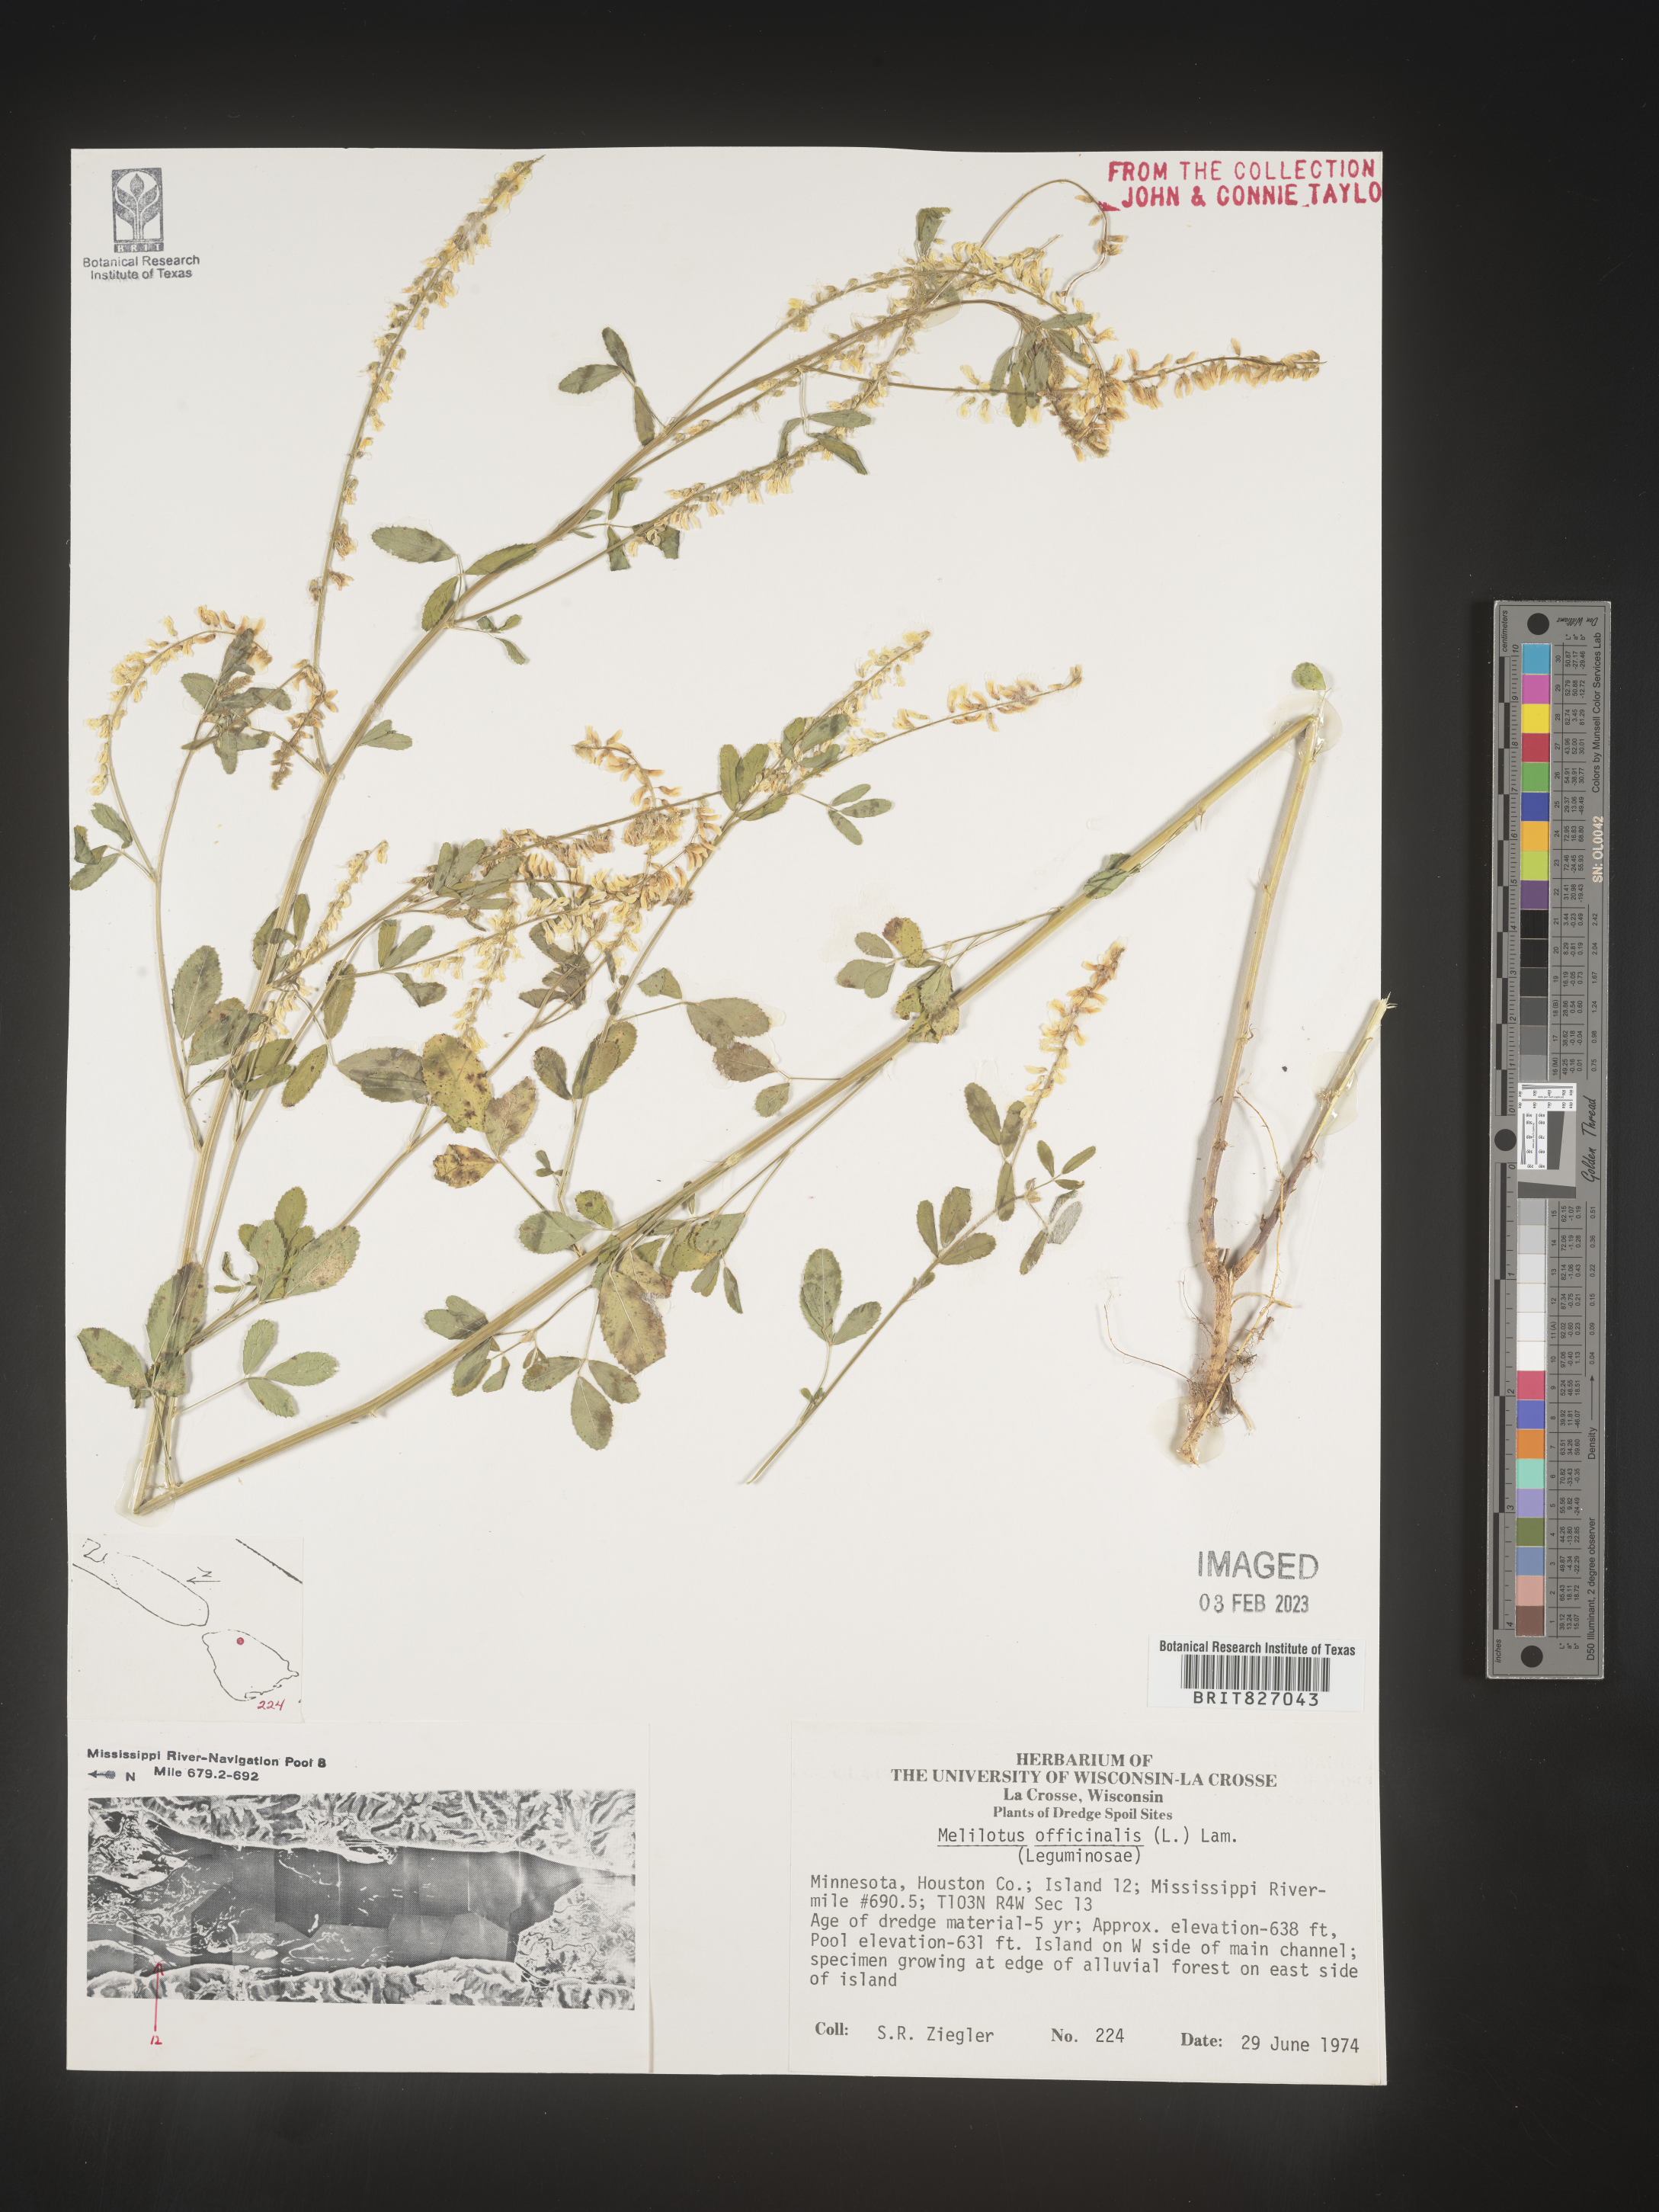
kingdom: Plantae
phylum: Tracheophyta
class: Magnoliopsida
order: Fabales
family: Fabaceae
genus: Melilotus
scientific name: Melilotus officinalis
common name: Sweetclover
